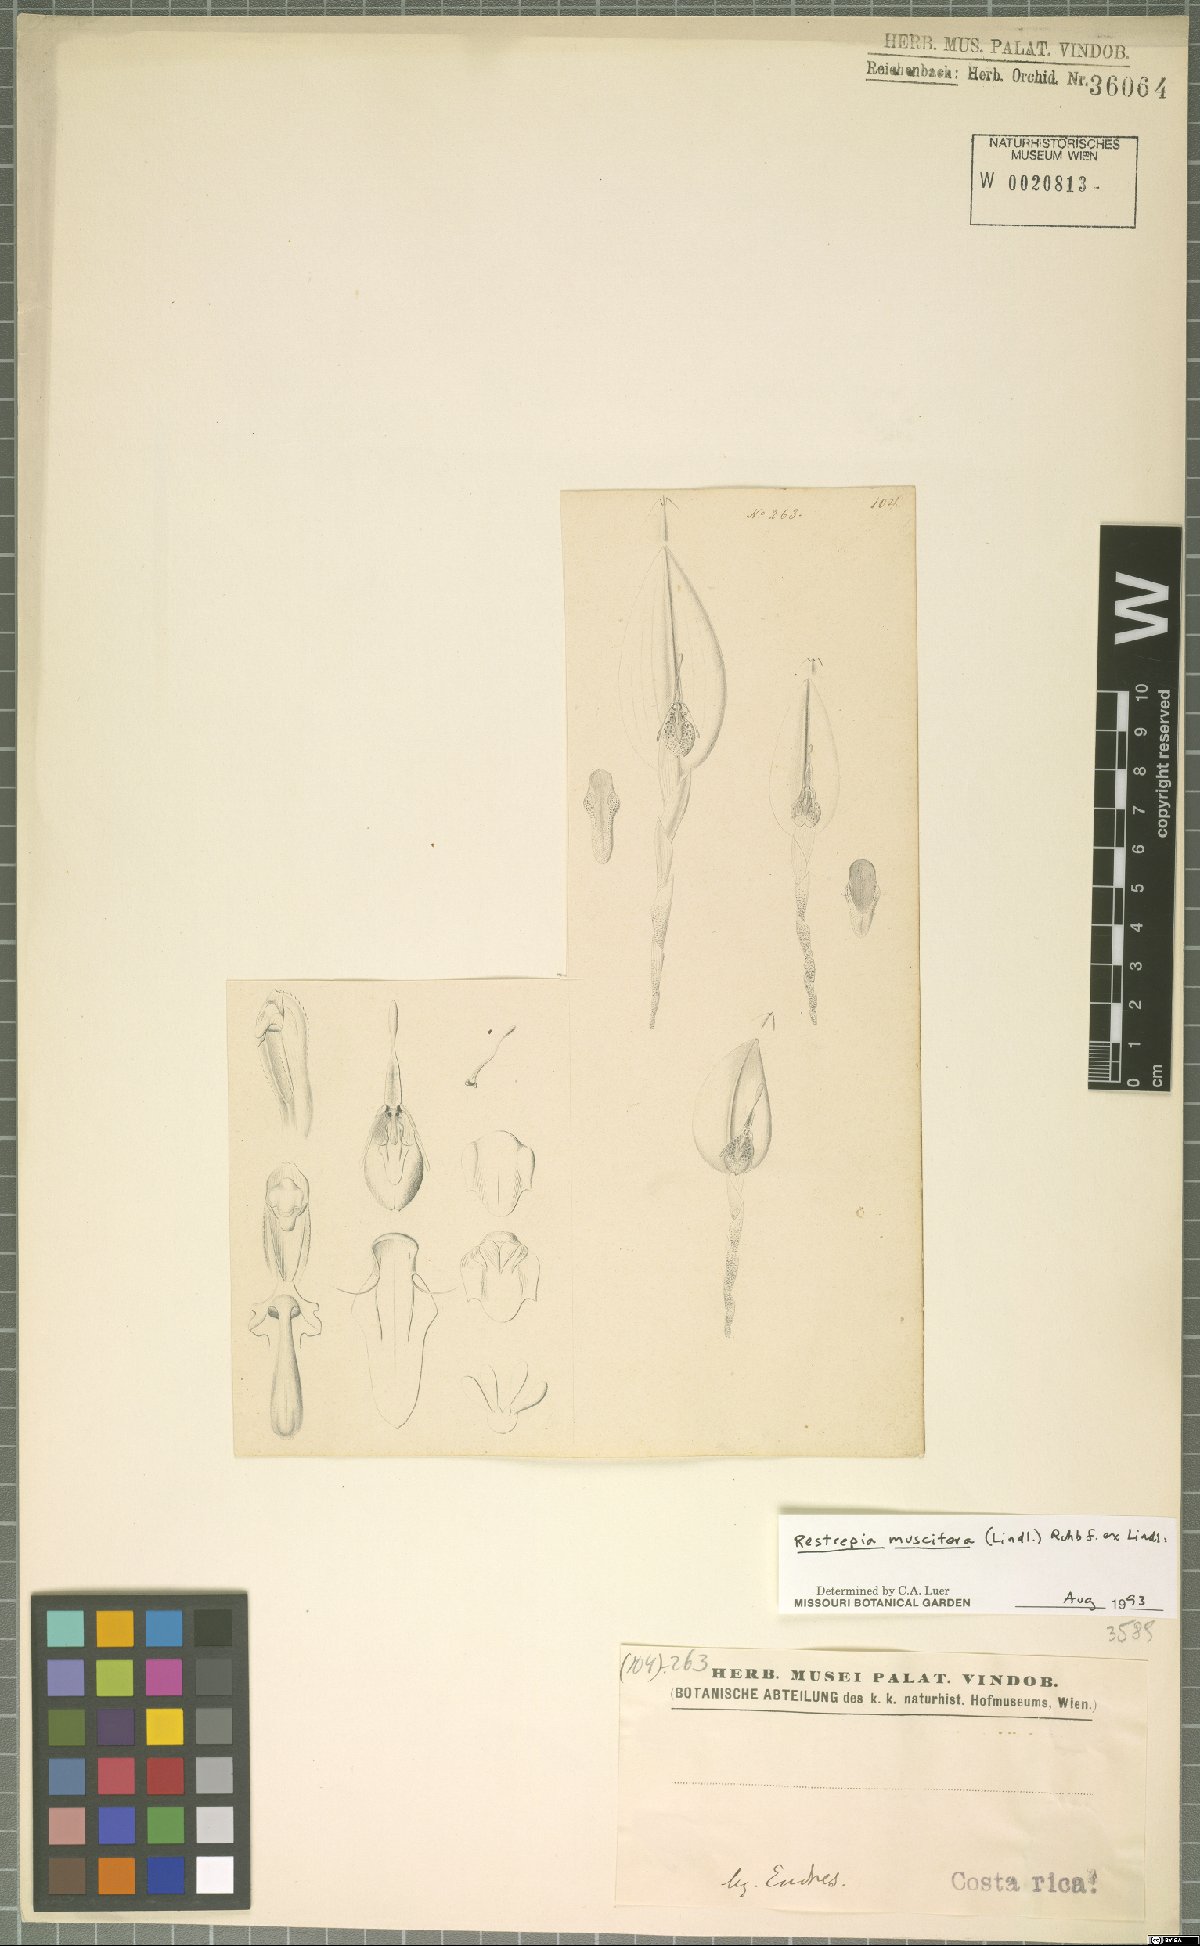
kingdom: Plantae
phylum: Tracheophyta
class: Liliopsida
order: Asparagales
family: Orchidaceae
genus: Restrepia
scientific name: Restrepia muscifera
